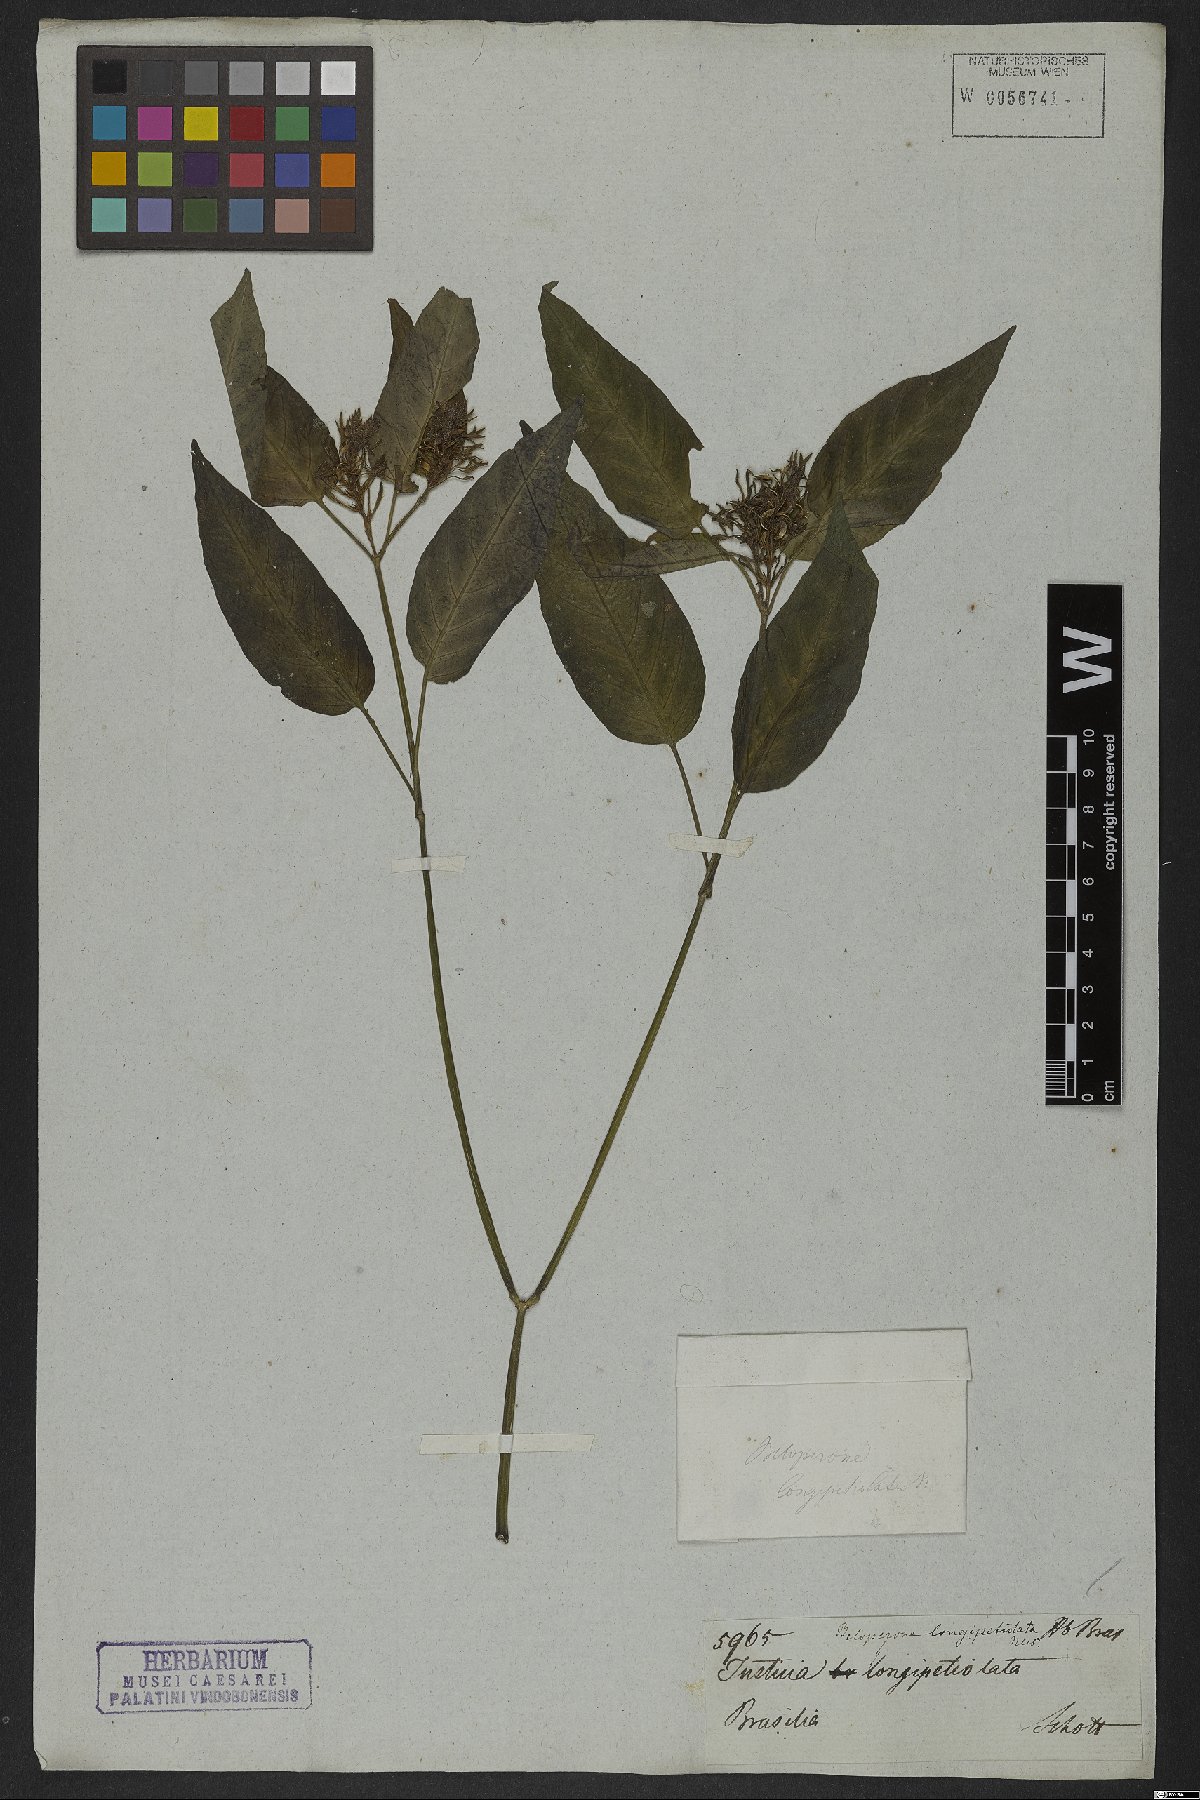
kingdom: Plantae
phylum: Tracheophyta
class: Magnoliopsida
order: Lamiales
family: Acanthaceae
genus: Justicia
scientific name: Justicia longepetiolata
